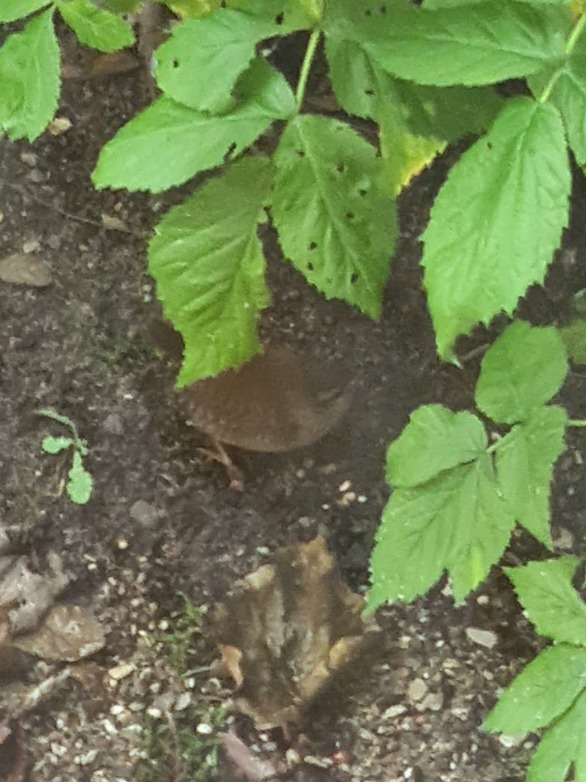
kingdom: Animalia
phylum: Chordata
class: Aves
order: Passeriformes
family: Troglodytidae
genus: Troglodytes
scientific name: Troglodytes troglodytes
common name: Gærdesmutte
